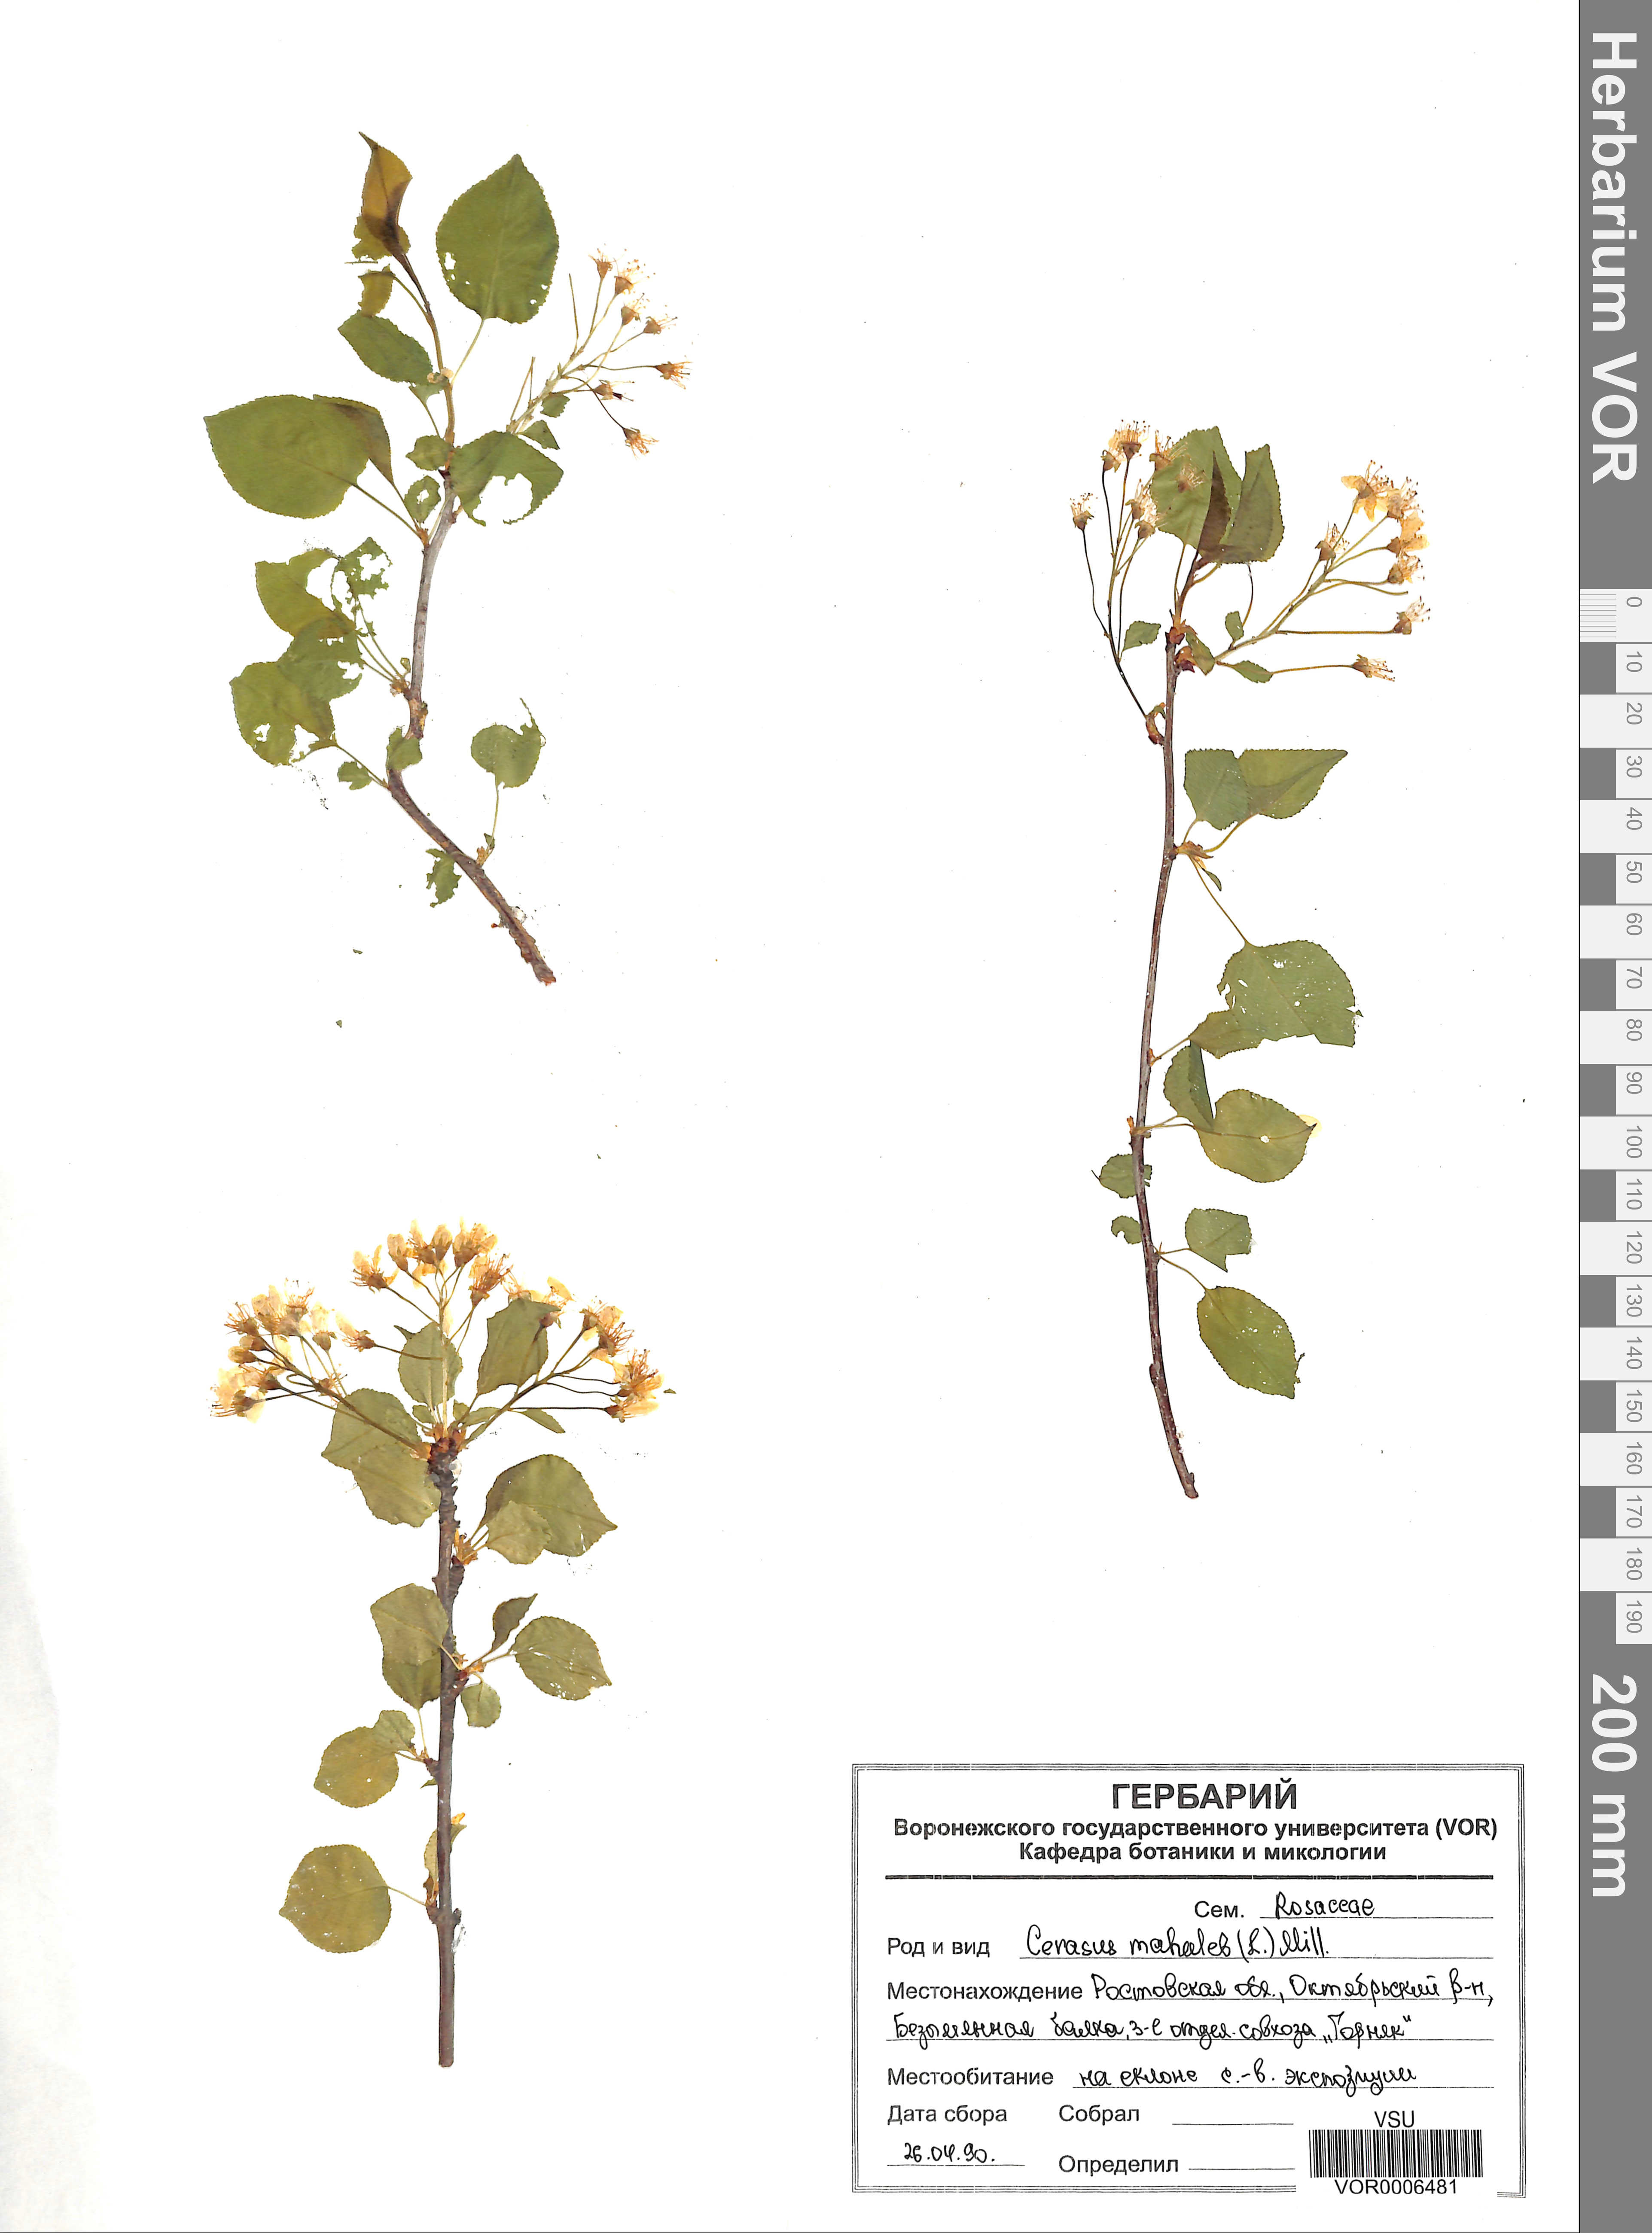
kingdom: Plantae
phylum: Tracheophyta
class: Magnoliopsida
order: Rosales
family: Rosaceae
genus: Prunus
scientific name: Prunus mahaleb
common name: Mahaleb cherry
